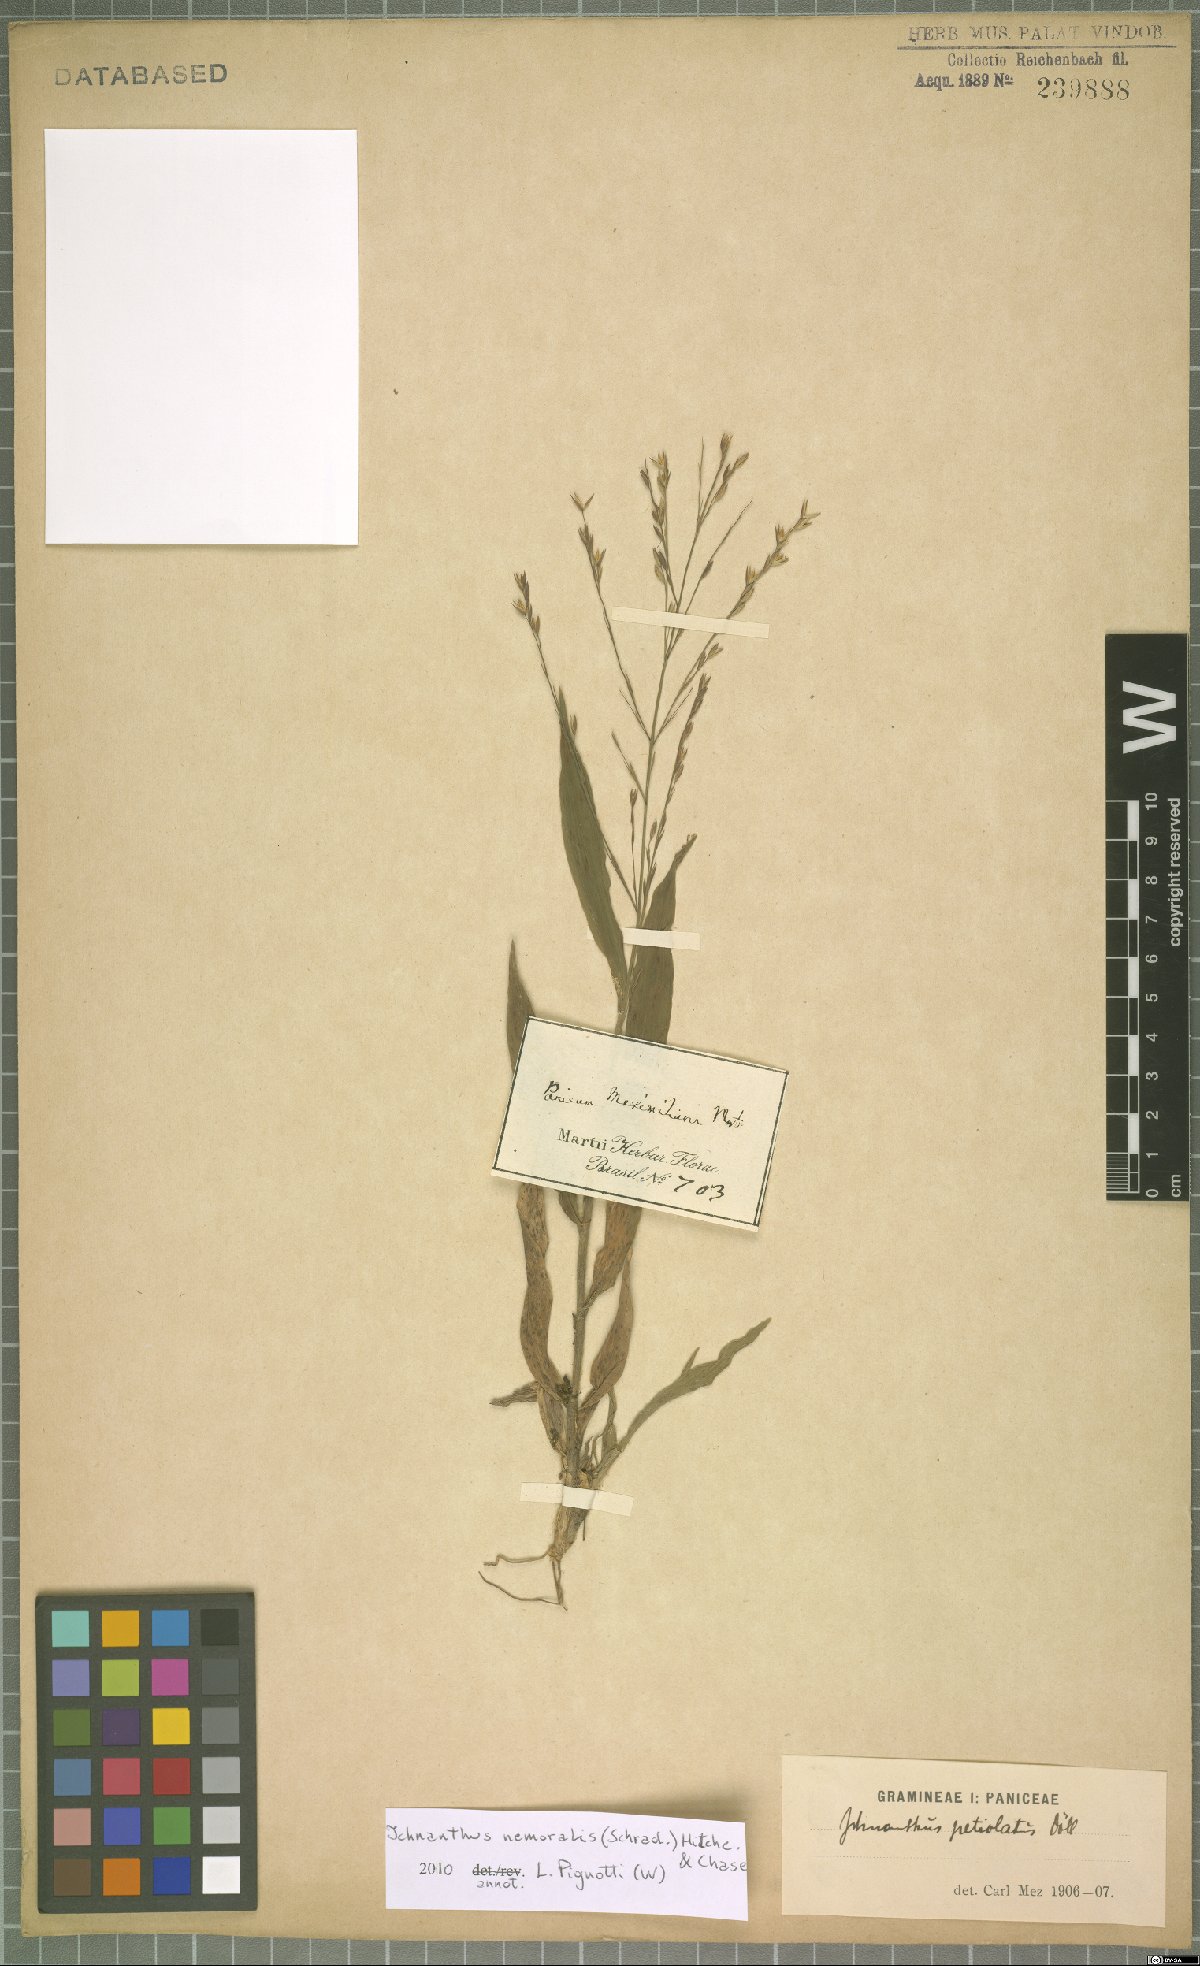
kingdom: Plantae
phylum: Tracheophyta
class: Liliopsida
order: Poales
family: Poaceae
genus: Ichnanthus
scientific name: Ichnanthus nemoralis
